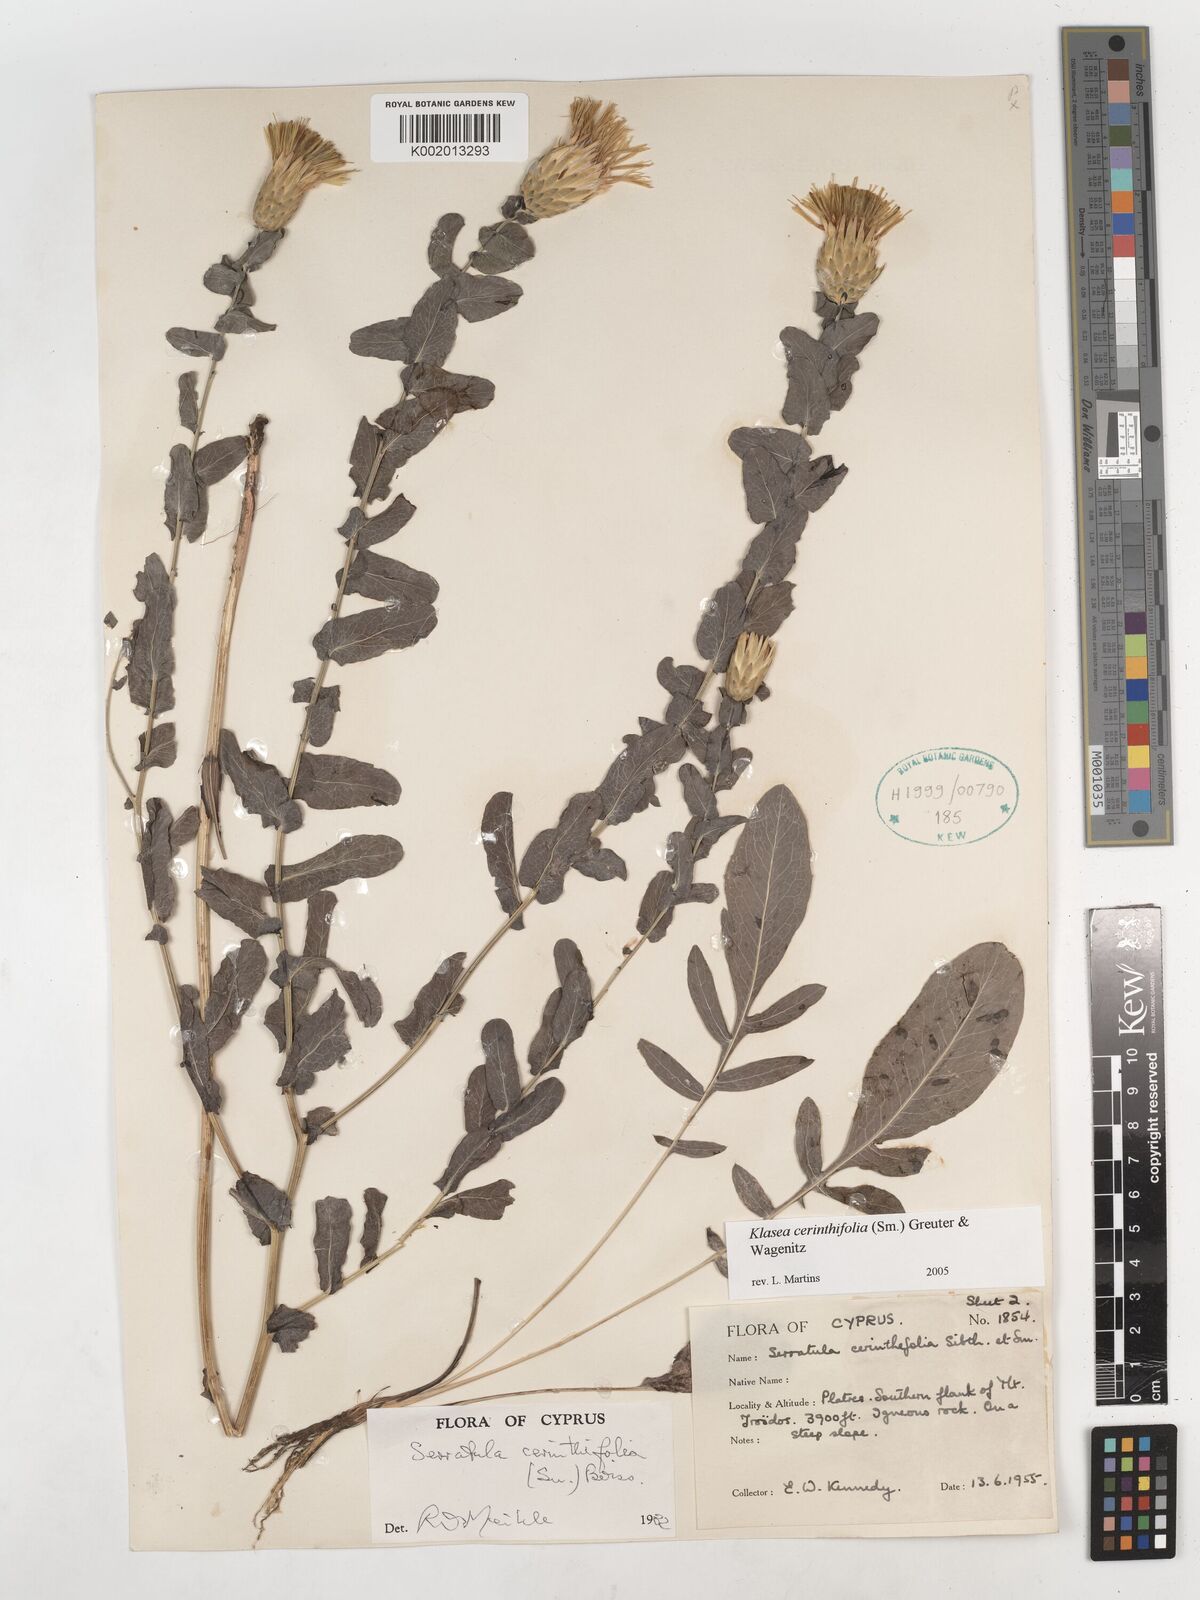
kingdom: Plantae
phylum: Tracheophyta
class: Magnoliopsida
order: Asterales
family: Asteraceae
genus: Klasea
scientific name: Klasea cerinthifolia
